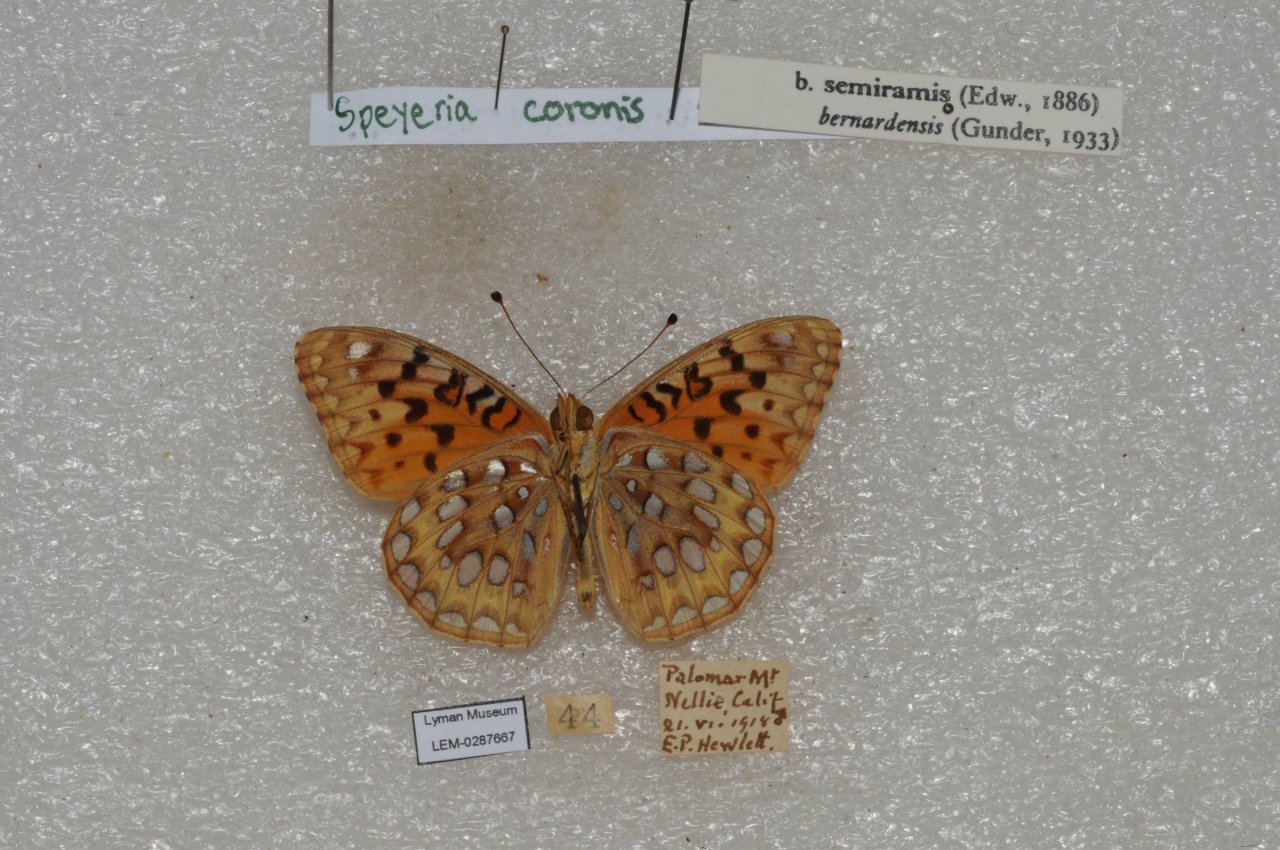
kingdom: Animalia
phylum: Arthropoda
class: Insecta
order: Lepidoptera
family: Nymphalidae
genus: Speyeria
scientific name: Speyeria coronis
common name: Coronis Fritillary
